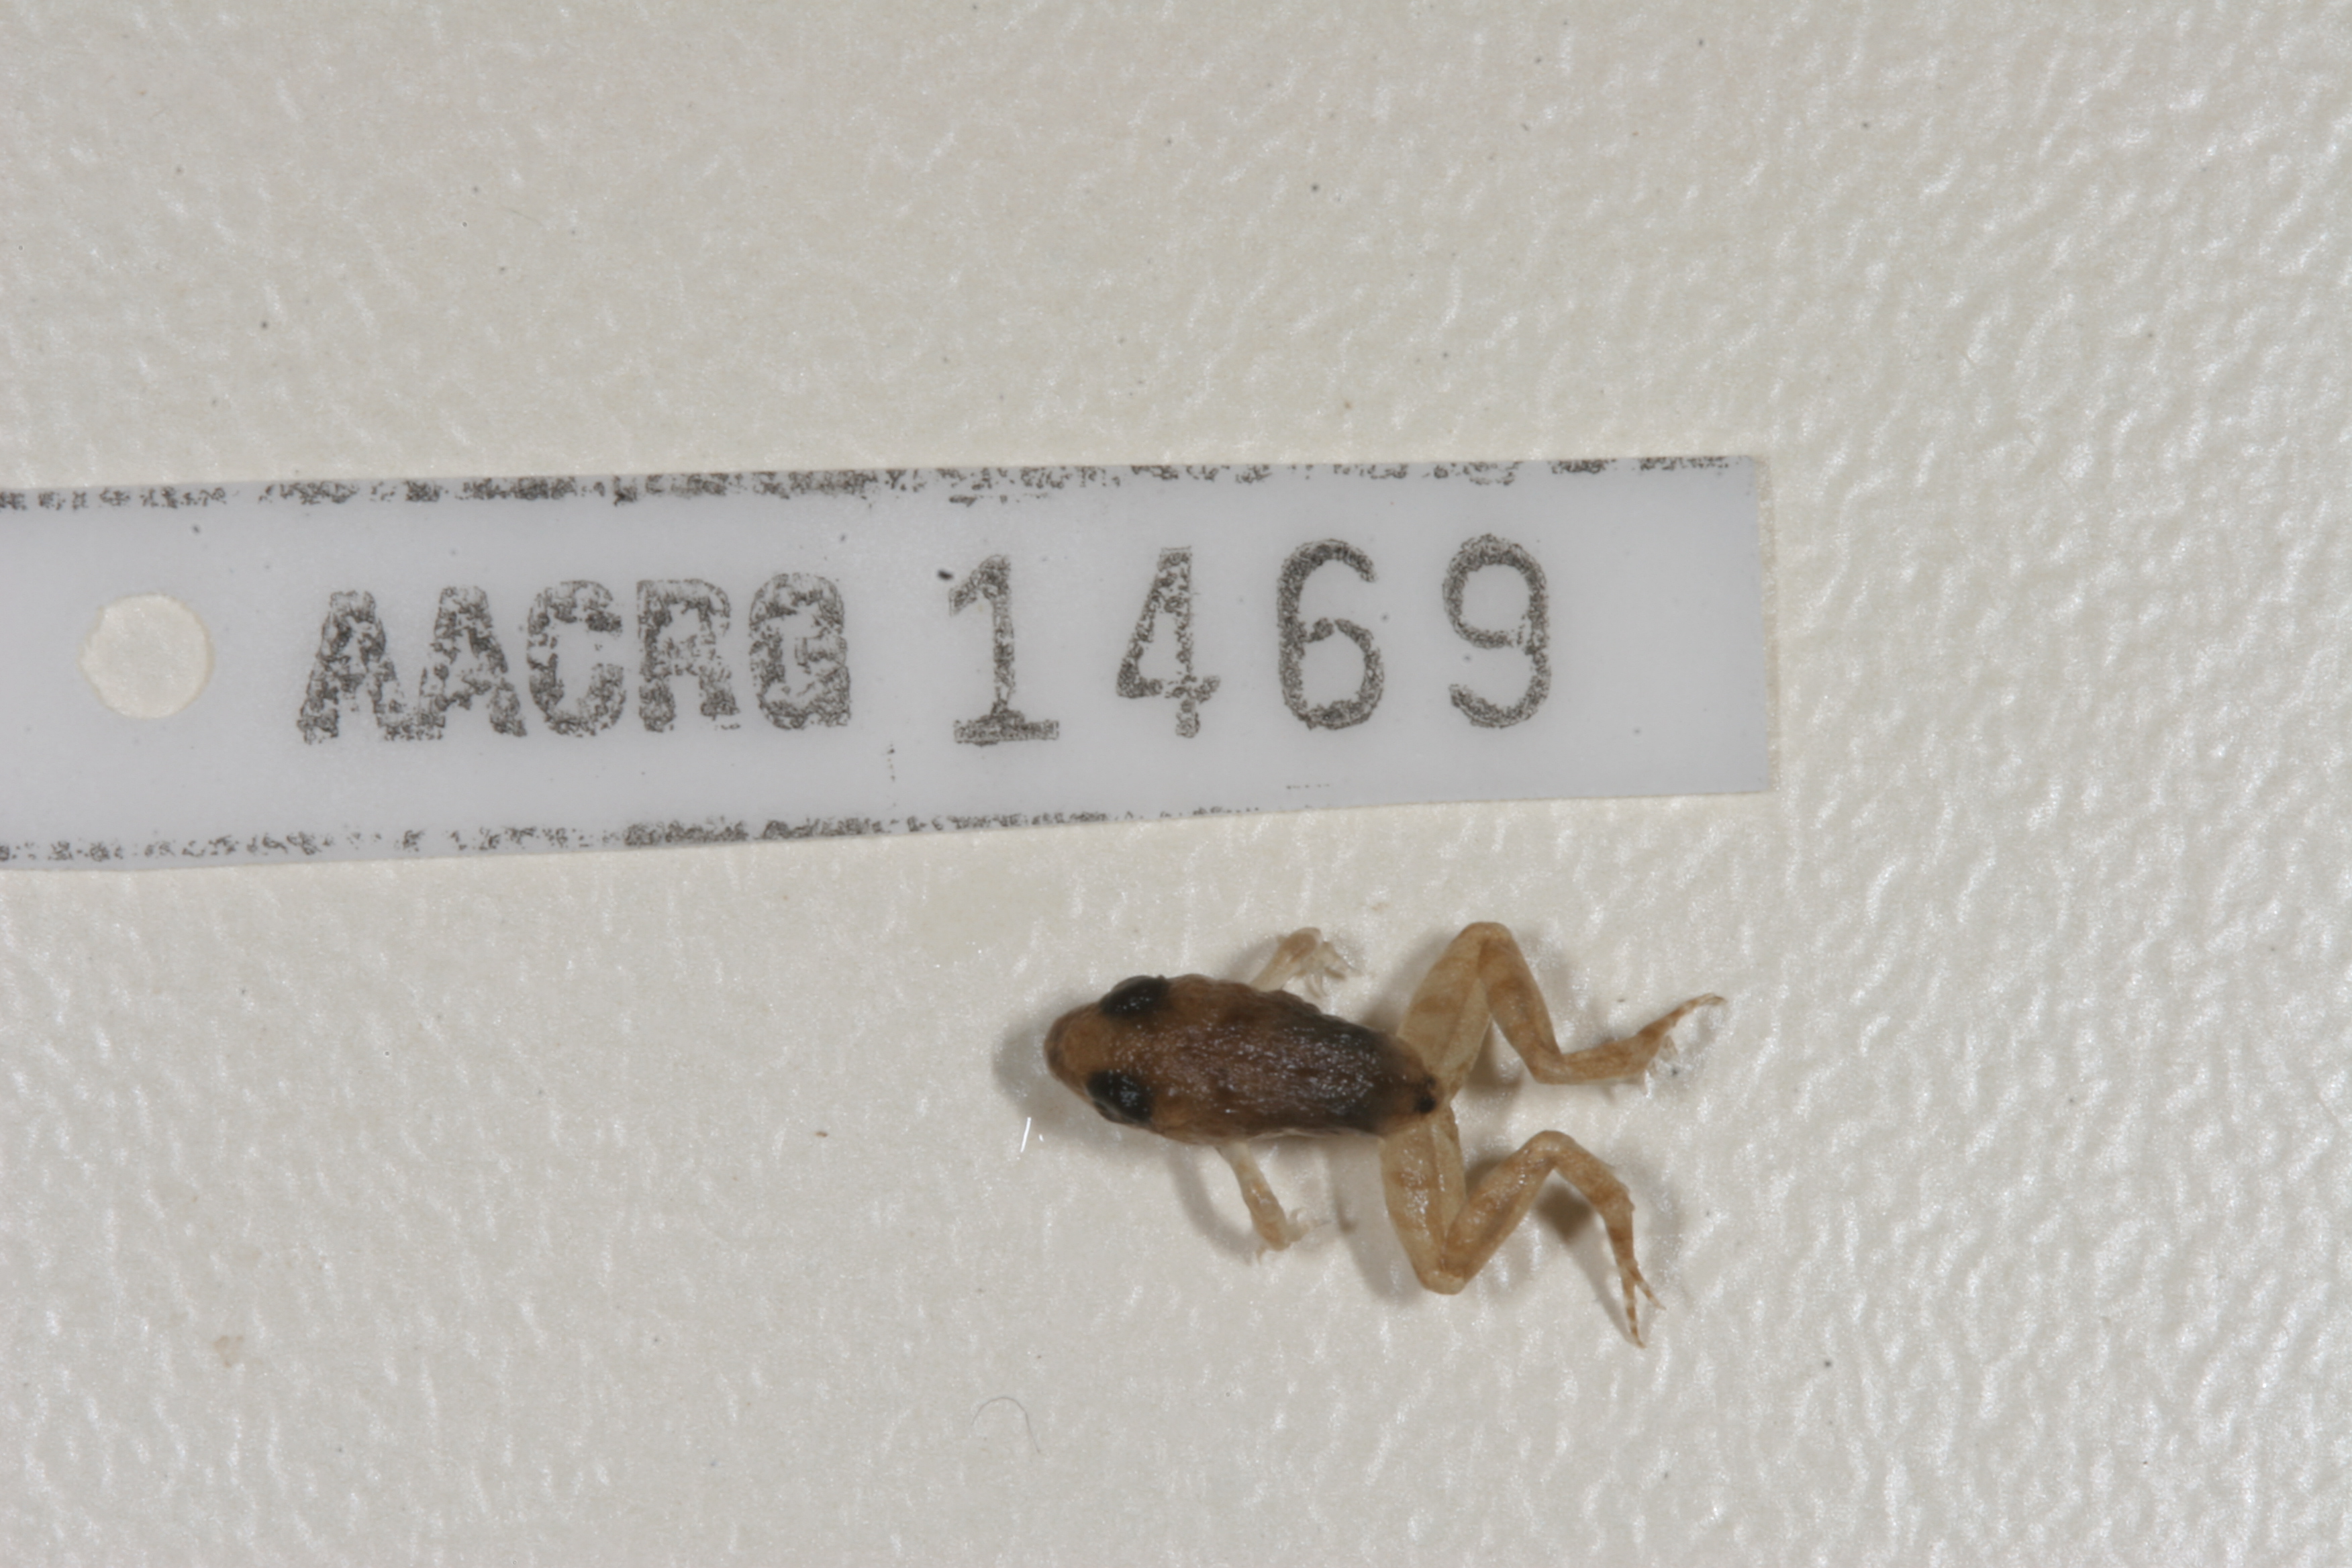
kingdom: Animalia
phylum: Chordata
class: Amphibia
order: Anura
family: Phrynobatrachidae
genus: Phrynobatrachus
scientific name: Phrynobatrachus mababiensis
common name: Dwarf puddle frog
